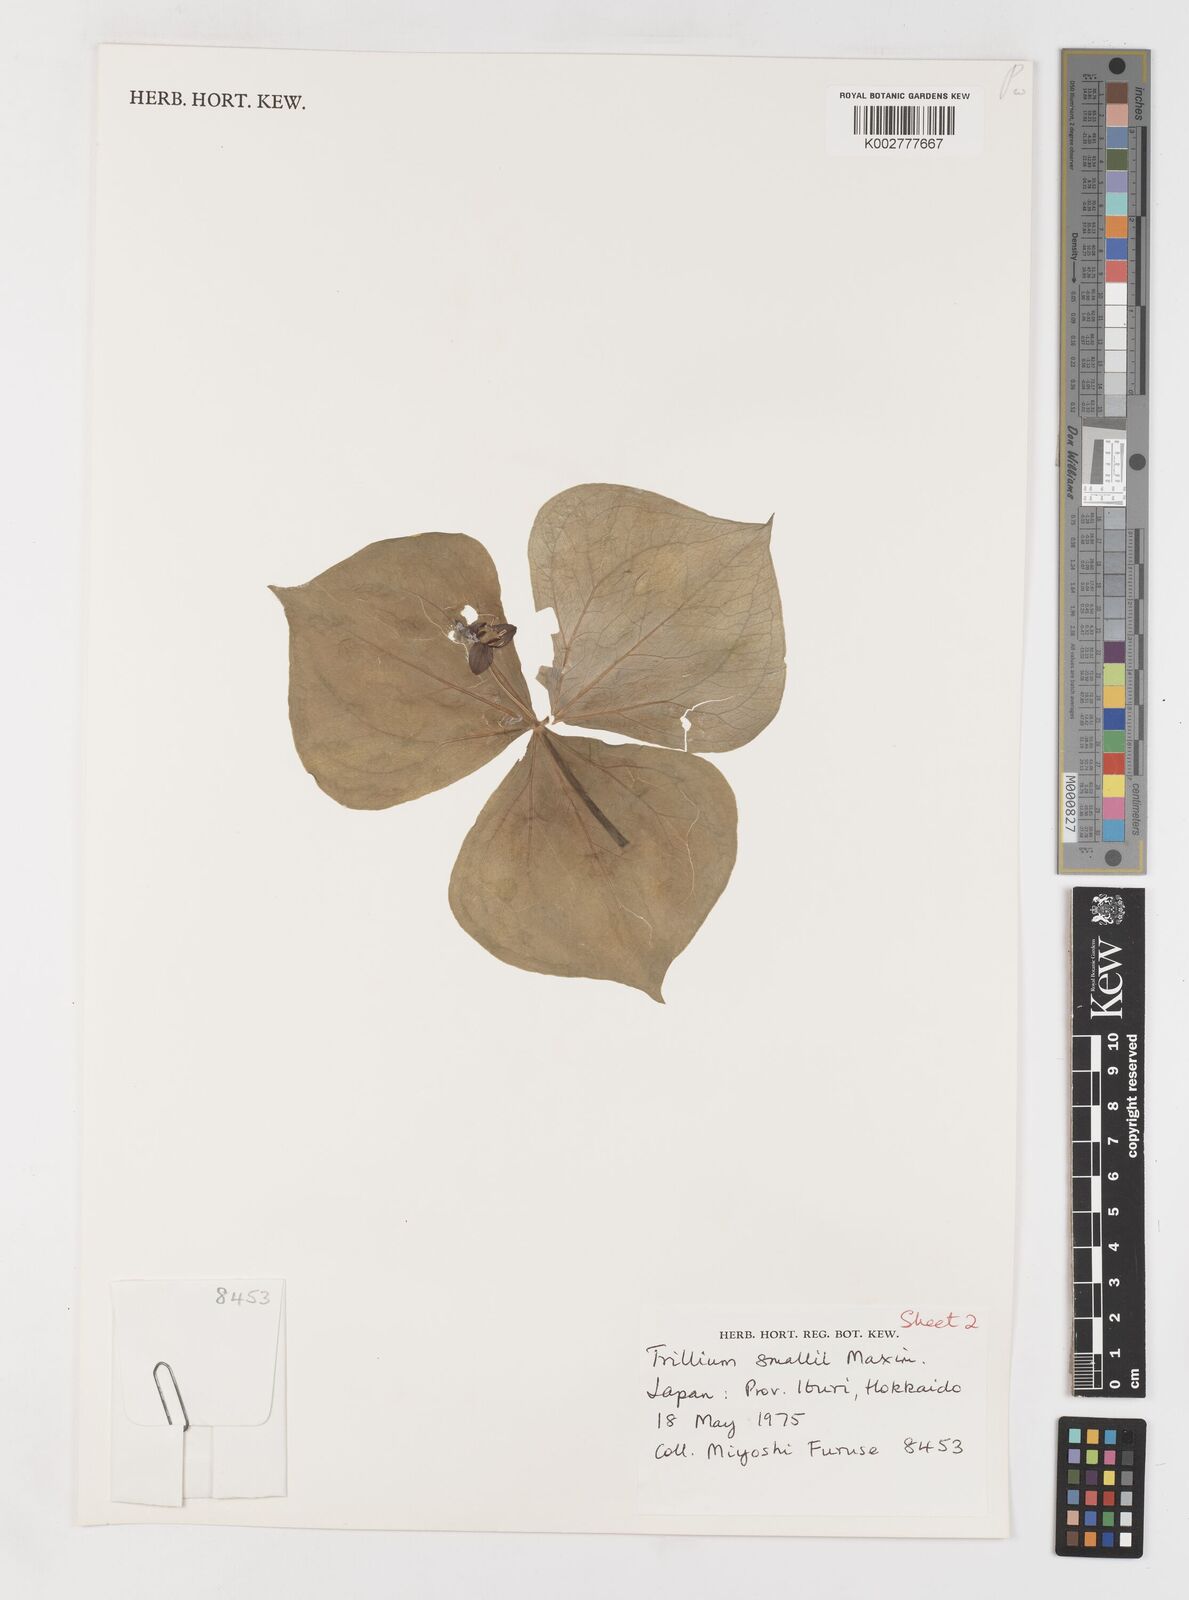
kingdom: Plantae
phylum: Tracheophyta
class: Liliopsida
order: Liliales
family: Melanthiaceae
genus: Trillium
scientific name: Trillium smallii
